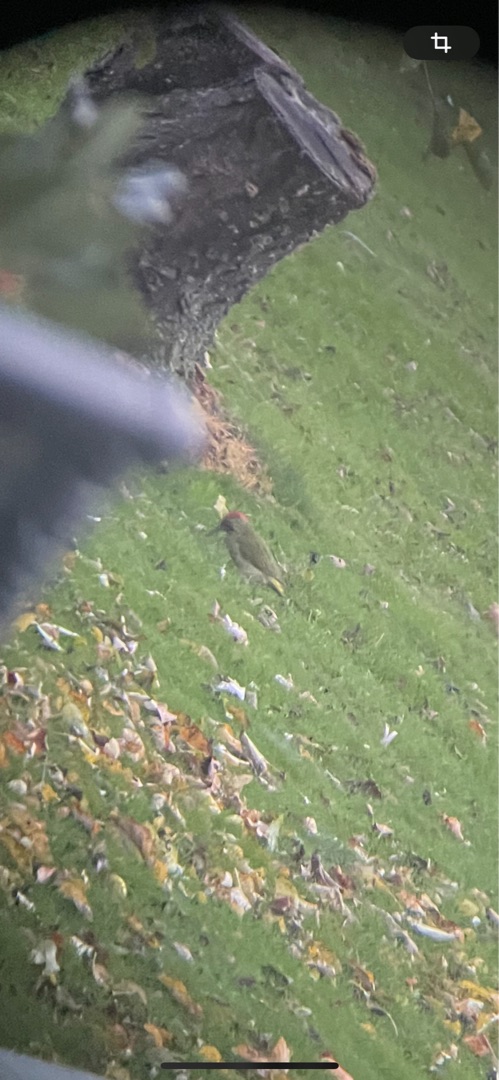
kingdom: Animalia
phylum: Chordata
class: Aves
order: Piciformes
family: Picidae
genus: Picus
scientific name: Picus viridis
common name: Grønspætte
